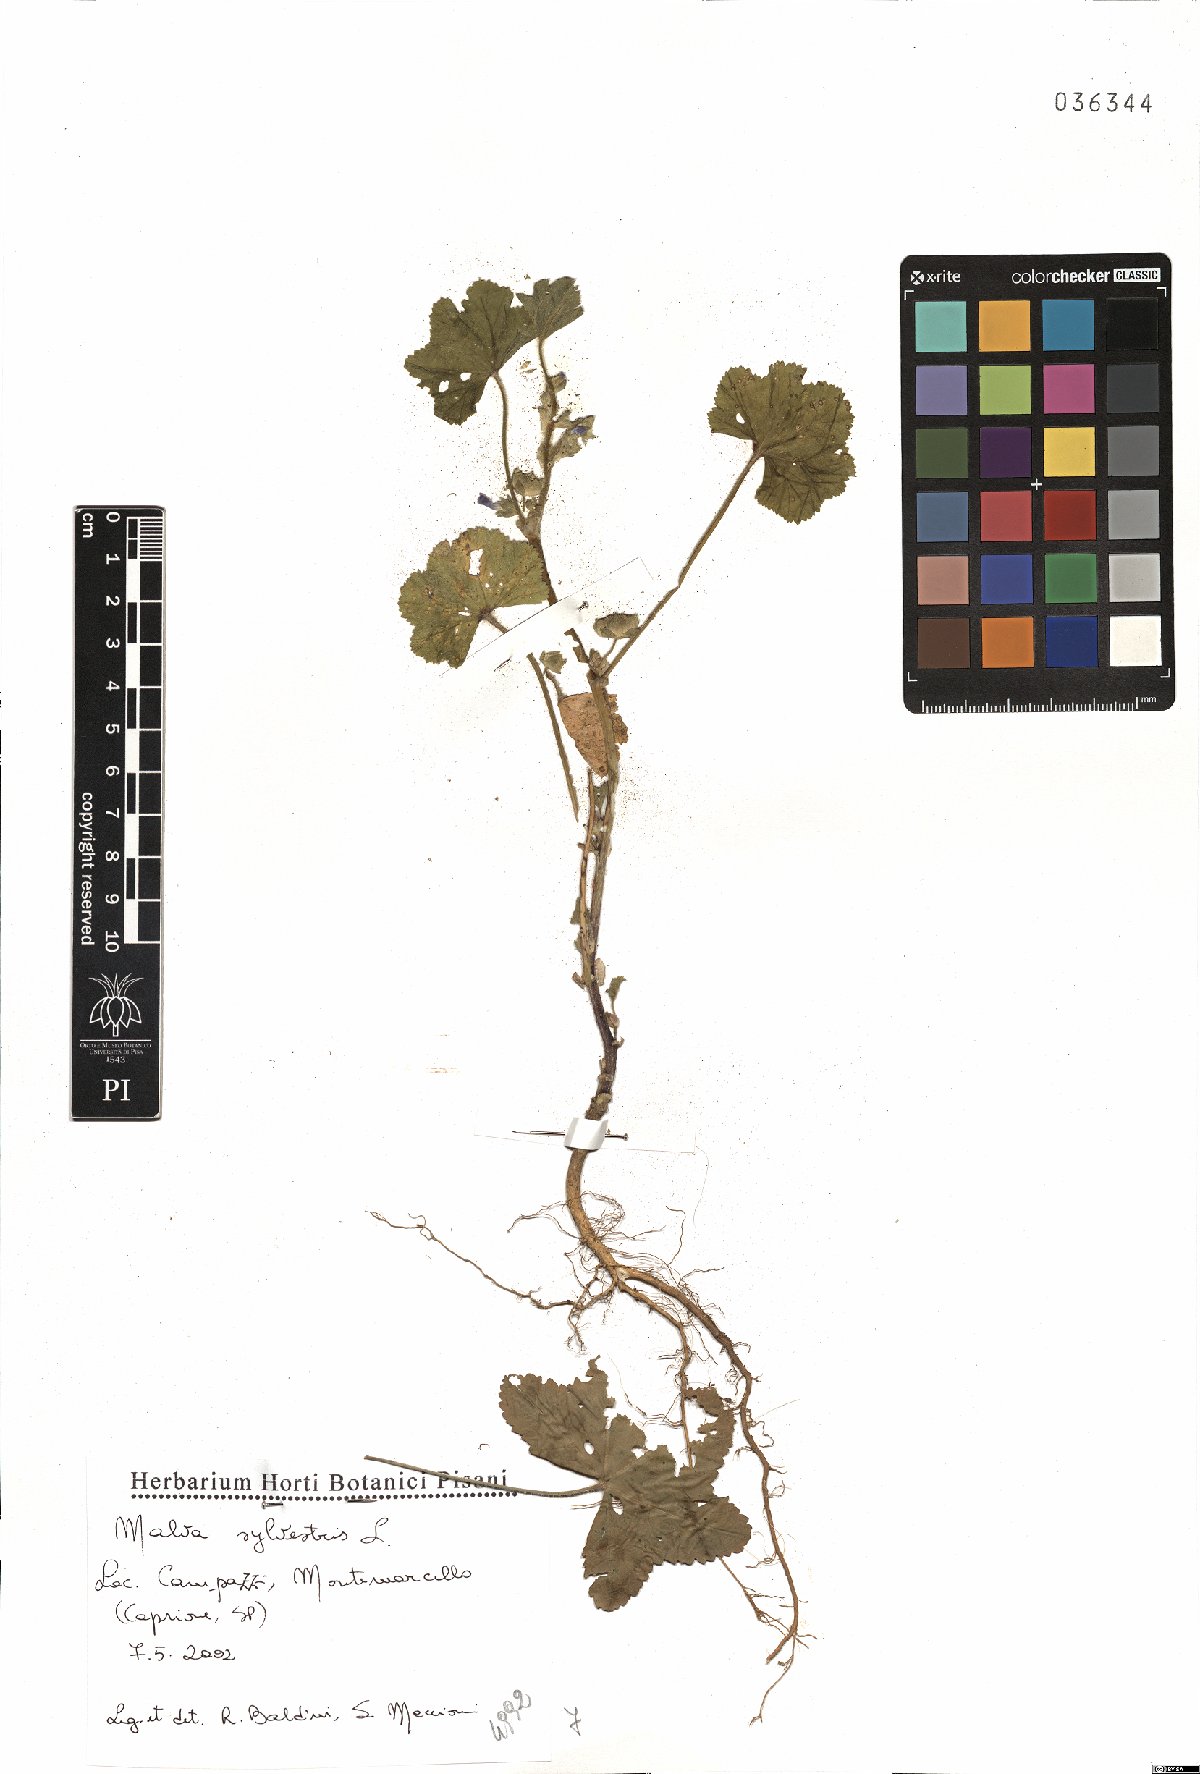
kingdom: Plantae
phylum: Tracheophyta
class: Magnoliopsida
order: Malvales
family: Malvaceae
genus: Malva
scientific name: Malva sylvestris
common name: Common mallow
